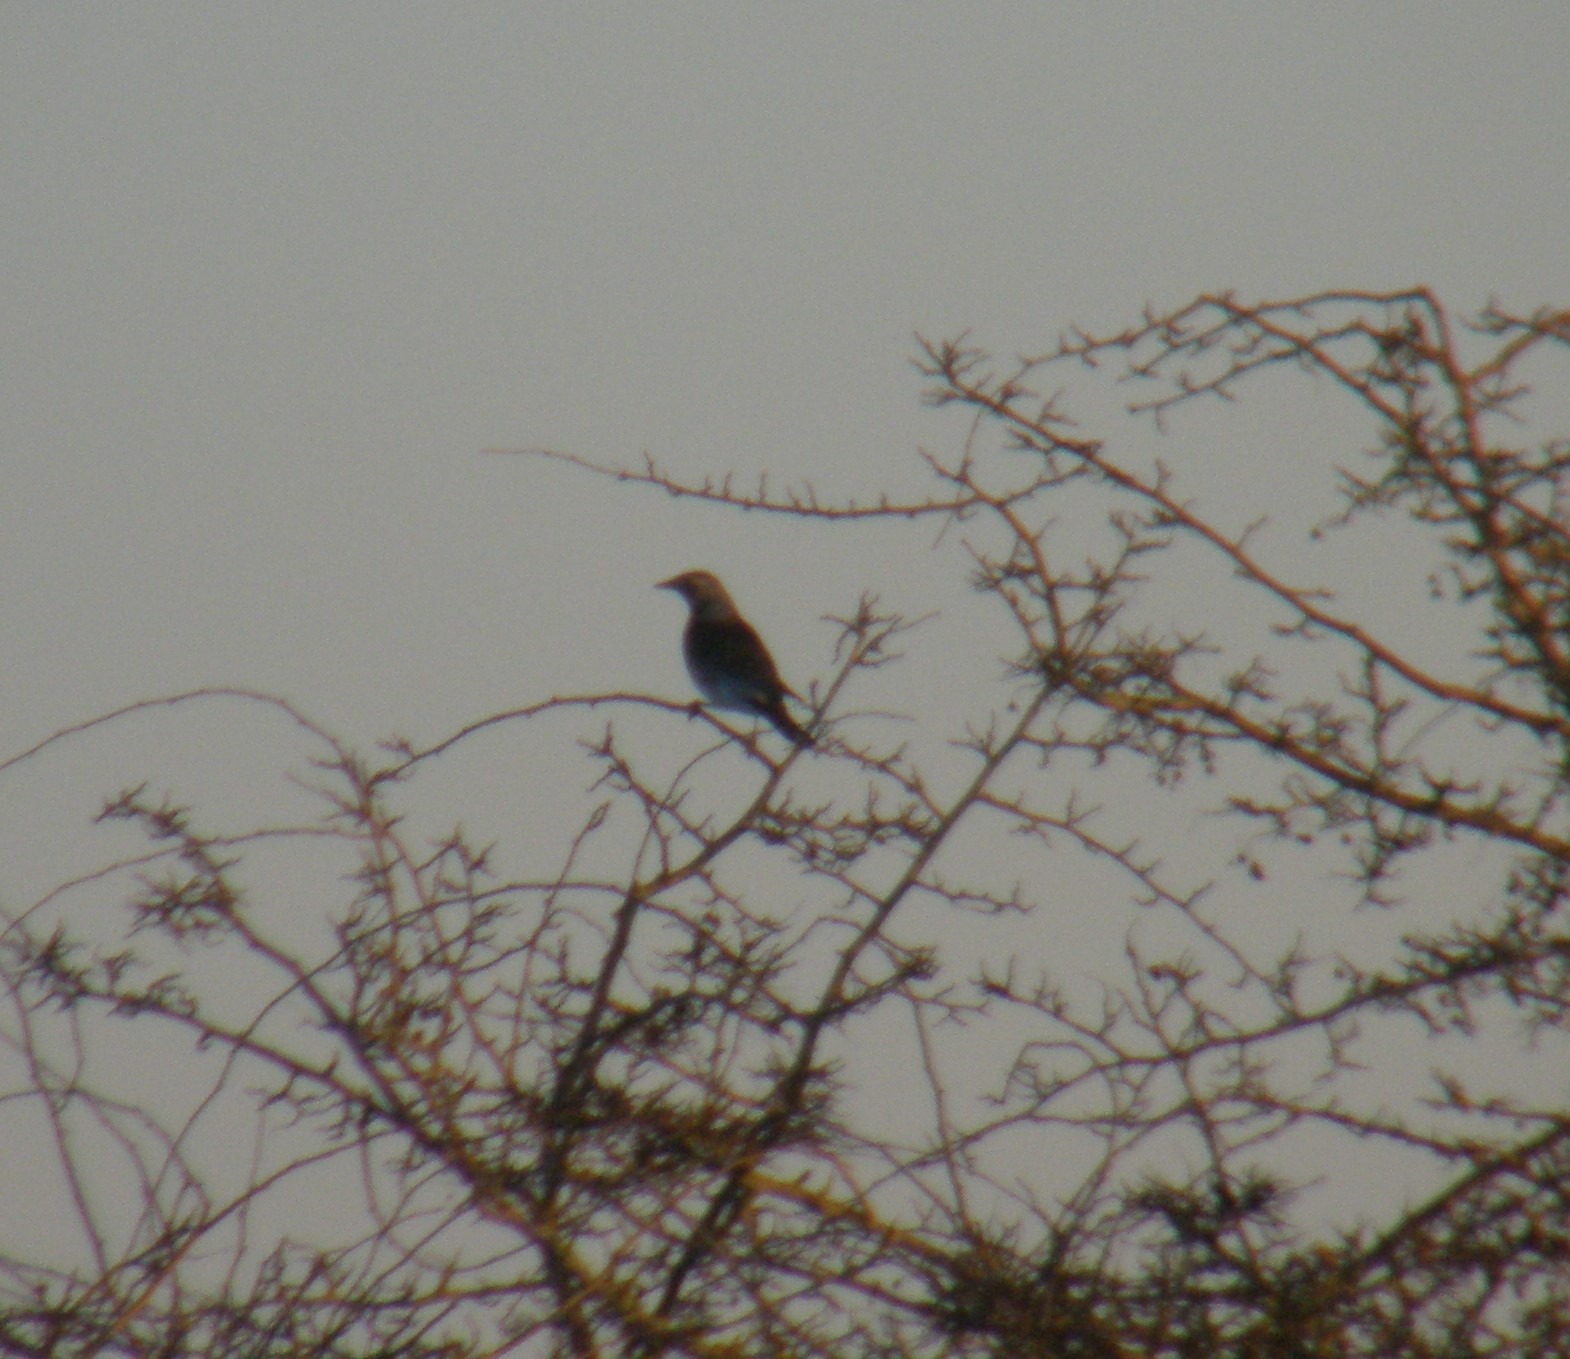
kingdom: Animalia
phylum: Chordata
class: Aves
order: Passeriformes
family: Turdidae
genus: Turdus
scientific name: Turdus pilaris
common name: Sjagger
